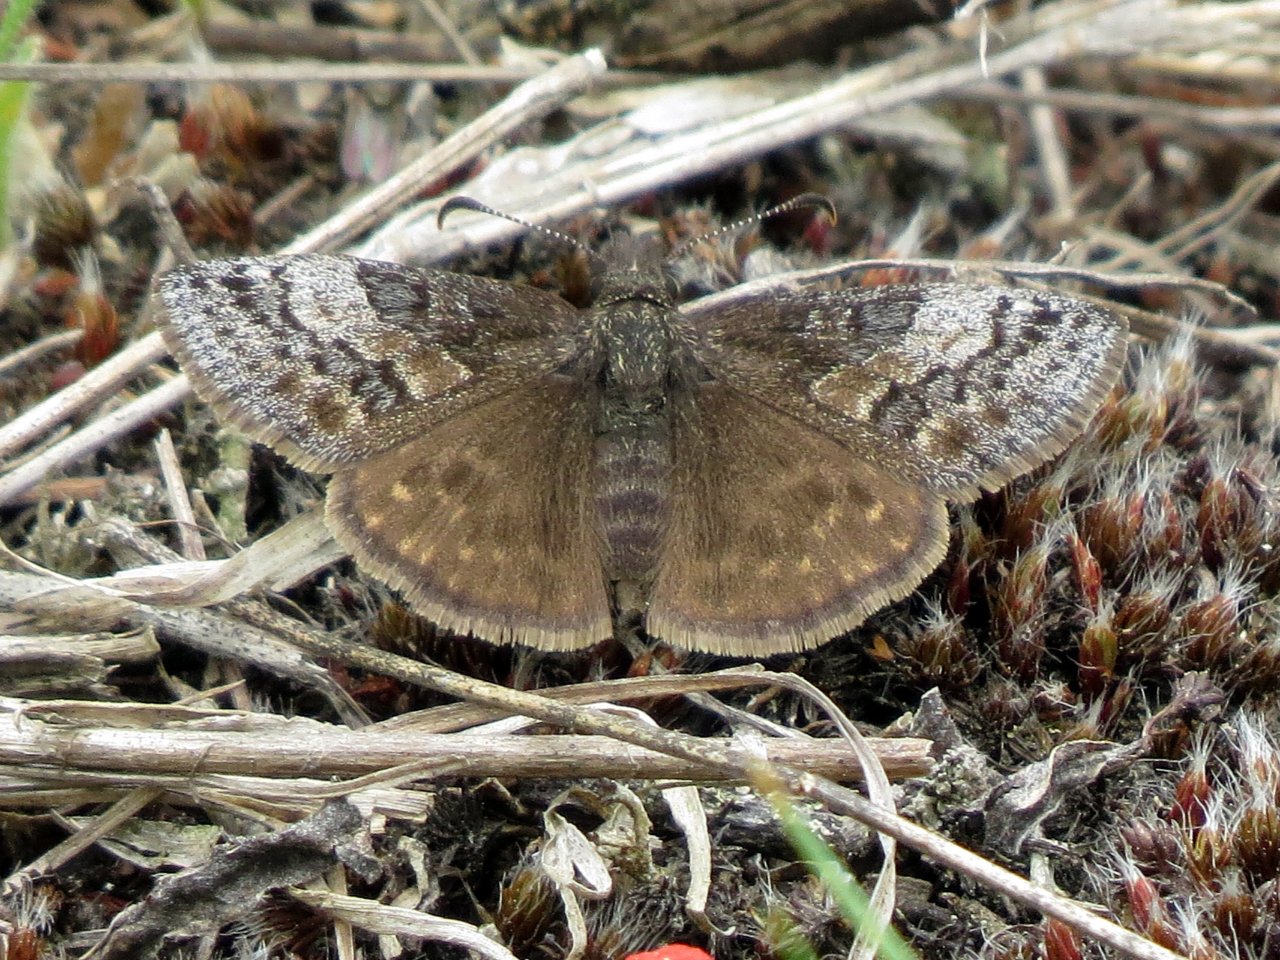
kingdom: Animalia
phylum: Arthropoda
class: Insecta
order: Lepidoptera
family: Hesperiidae
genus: Erynnis
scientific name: Erynnis icelus
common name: Dreamy Duskywing
